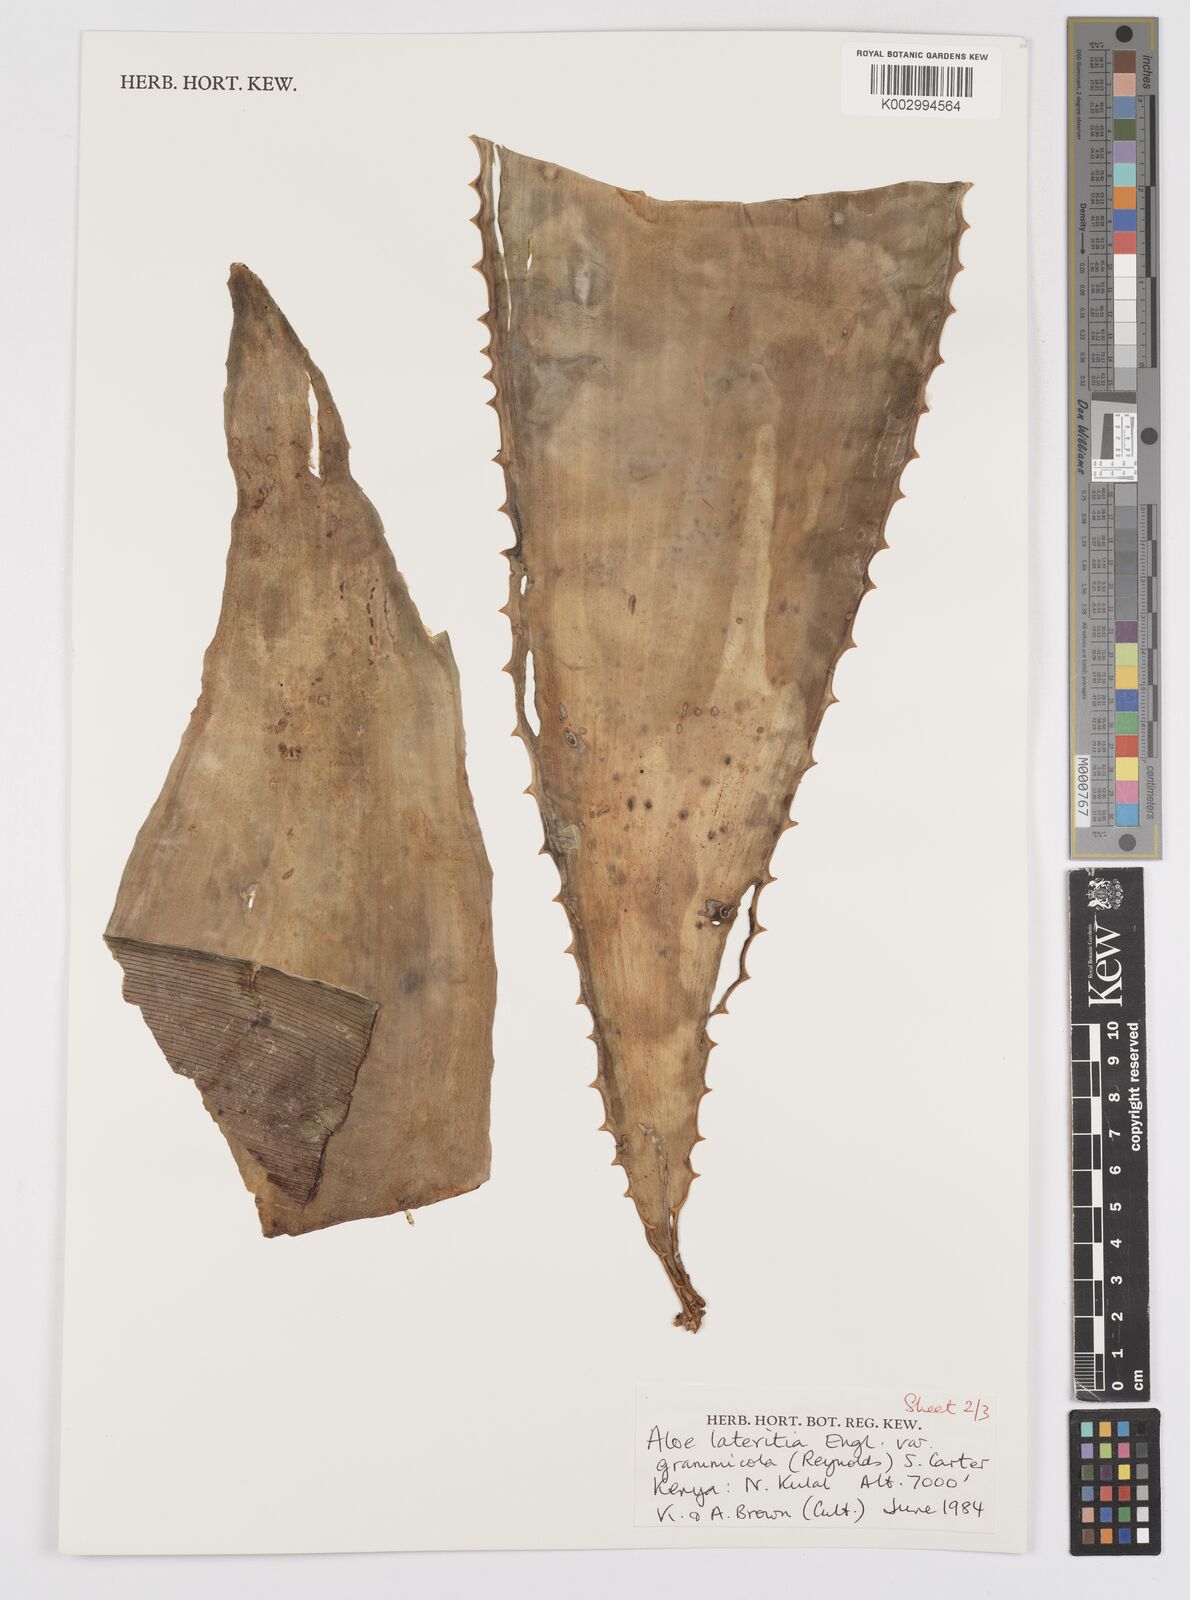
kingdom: Plantae
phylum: Tracheophyta
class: Liliopsida
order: Asparagales
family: Asphodelaceae
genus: Aloe
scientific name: Aloe lateritia
